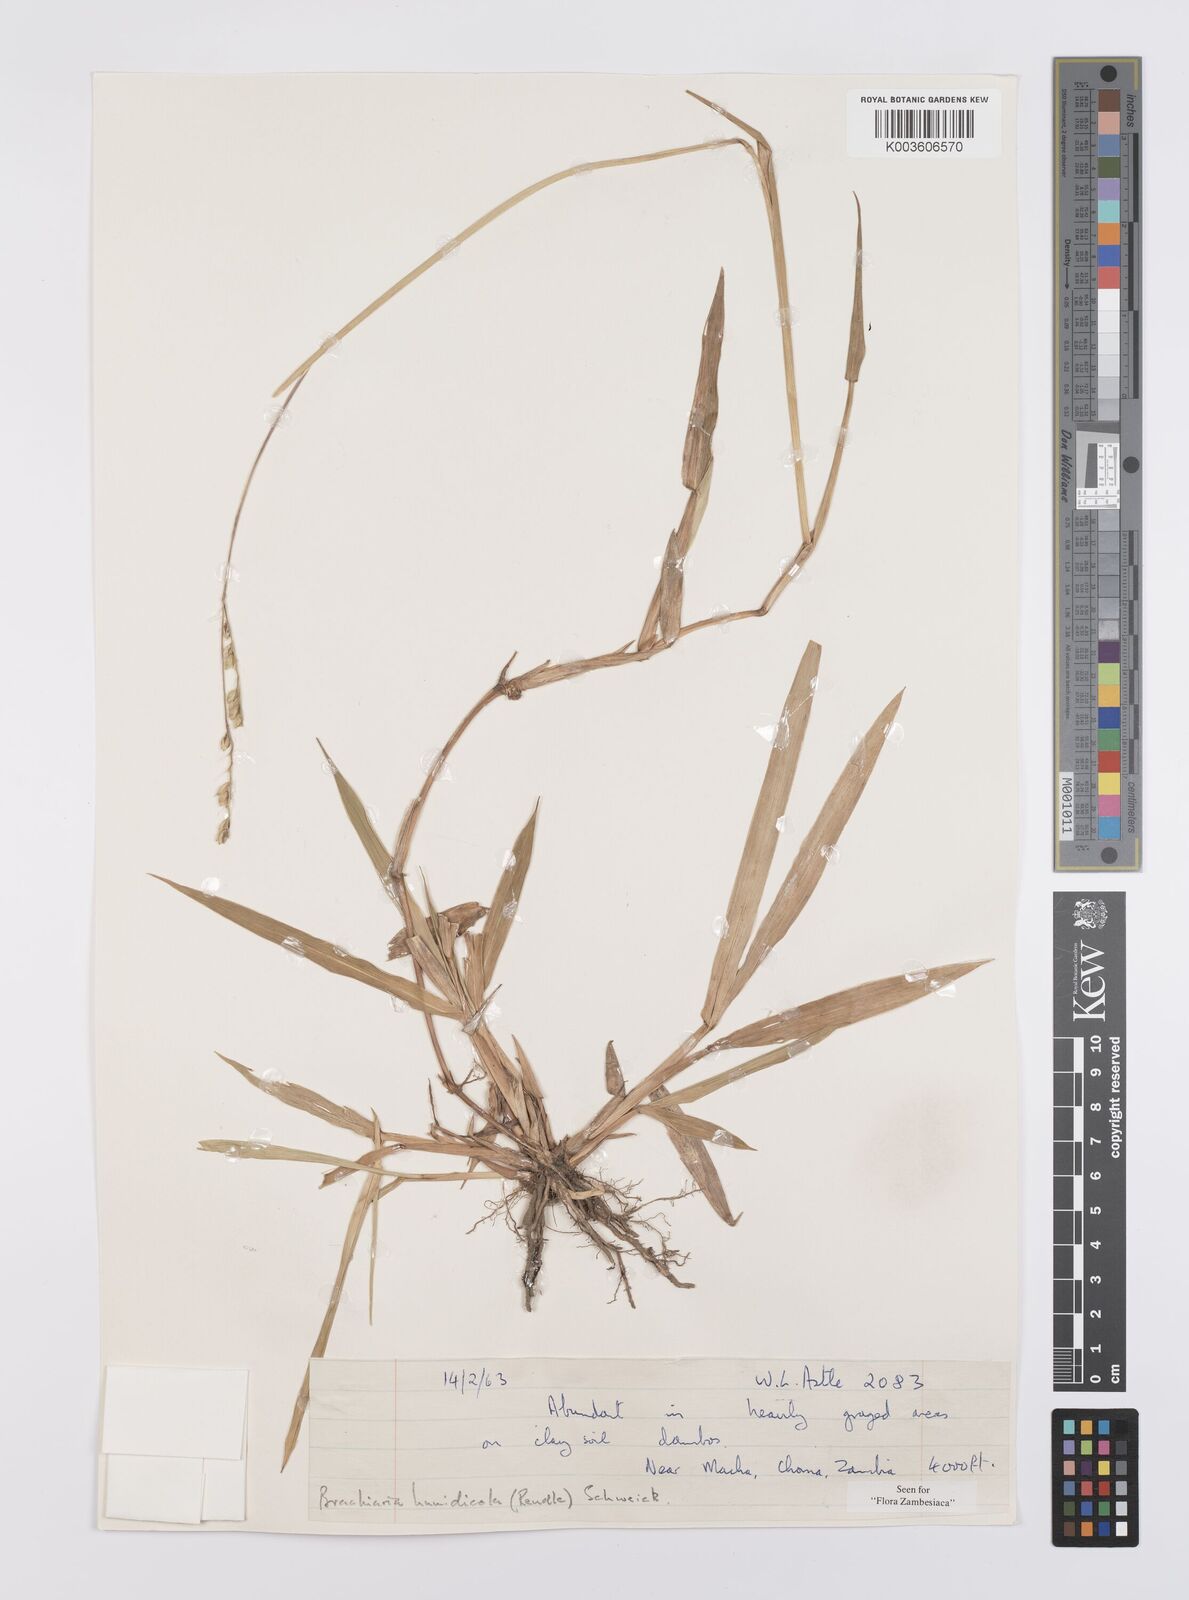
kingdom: Plantae
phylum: Tracheophyta
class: Liliopsida
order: Poales
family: Poaceae
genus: Urochloa
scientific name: Urochloa dictyoneura
